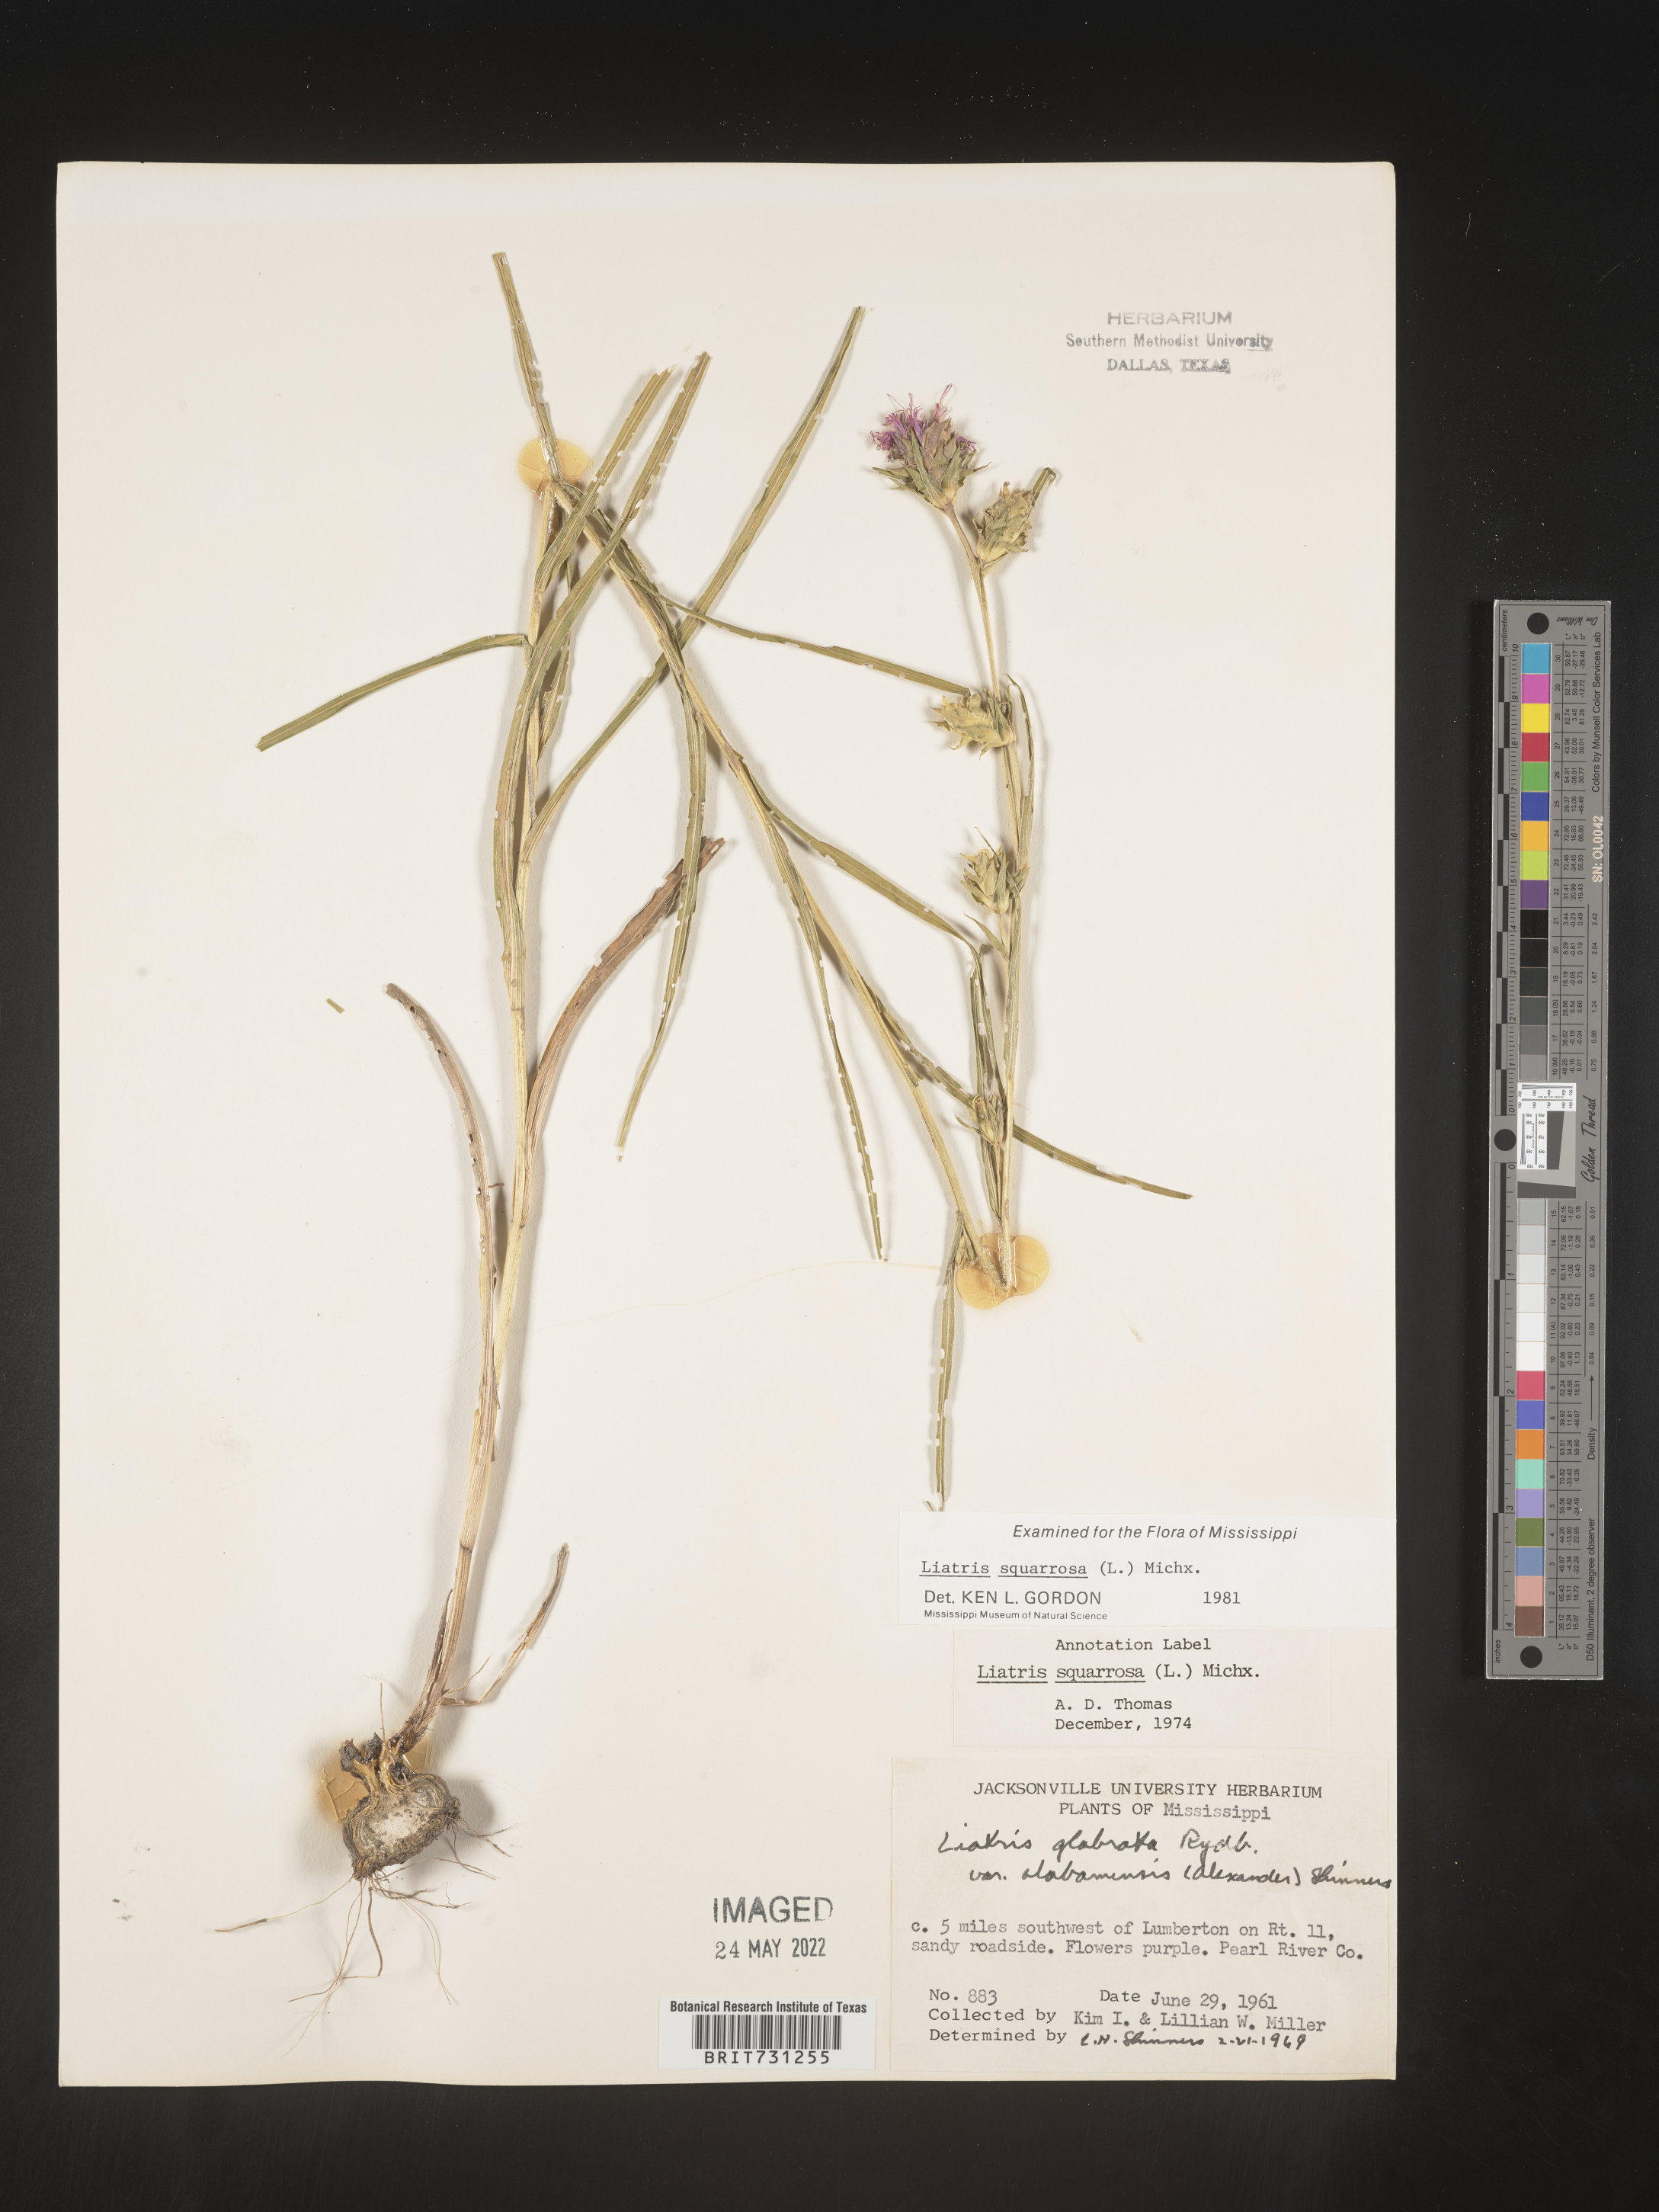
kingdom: Plantae
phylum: Tracheophyta
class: Magnoliopsida
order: Asterales
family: Asteraceae
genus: Liatris
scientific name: Liatris squarrosa
